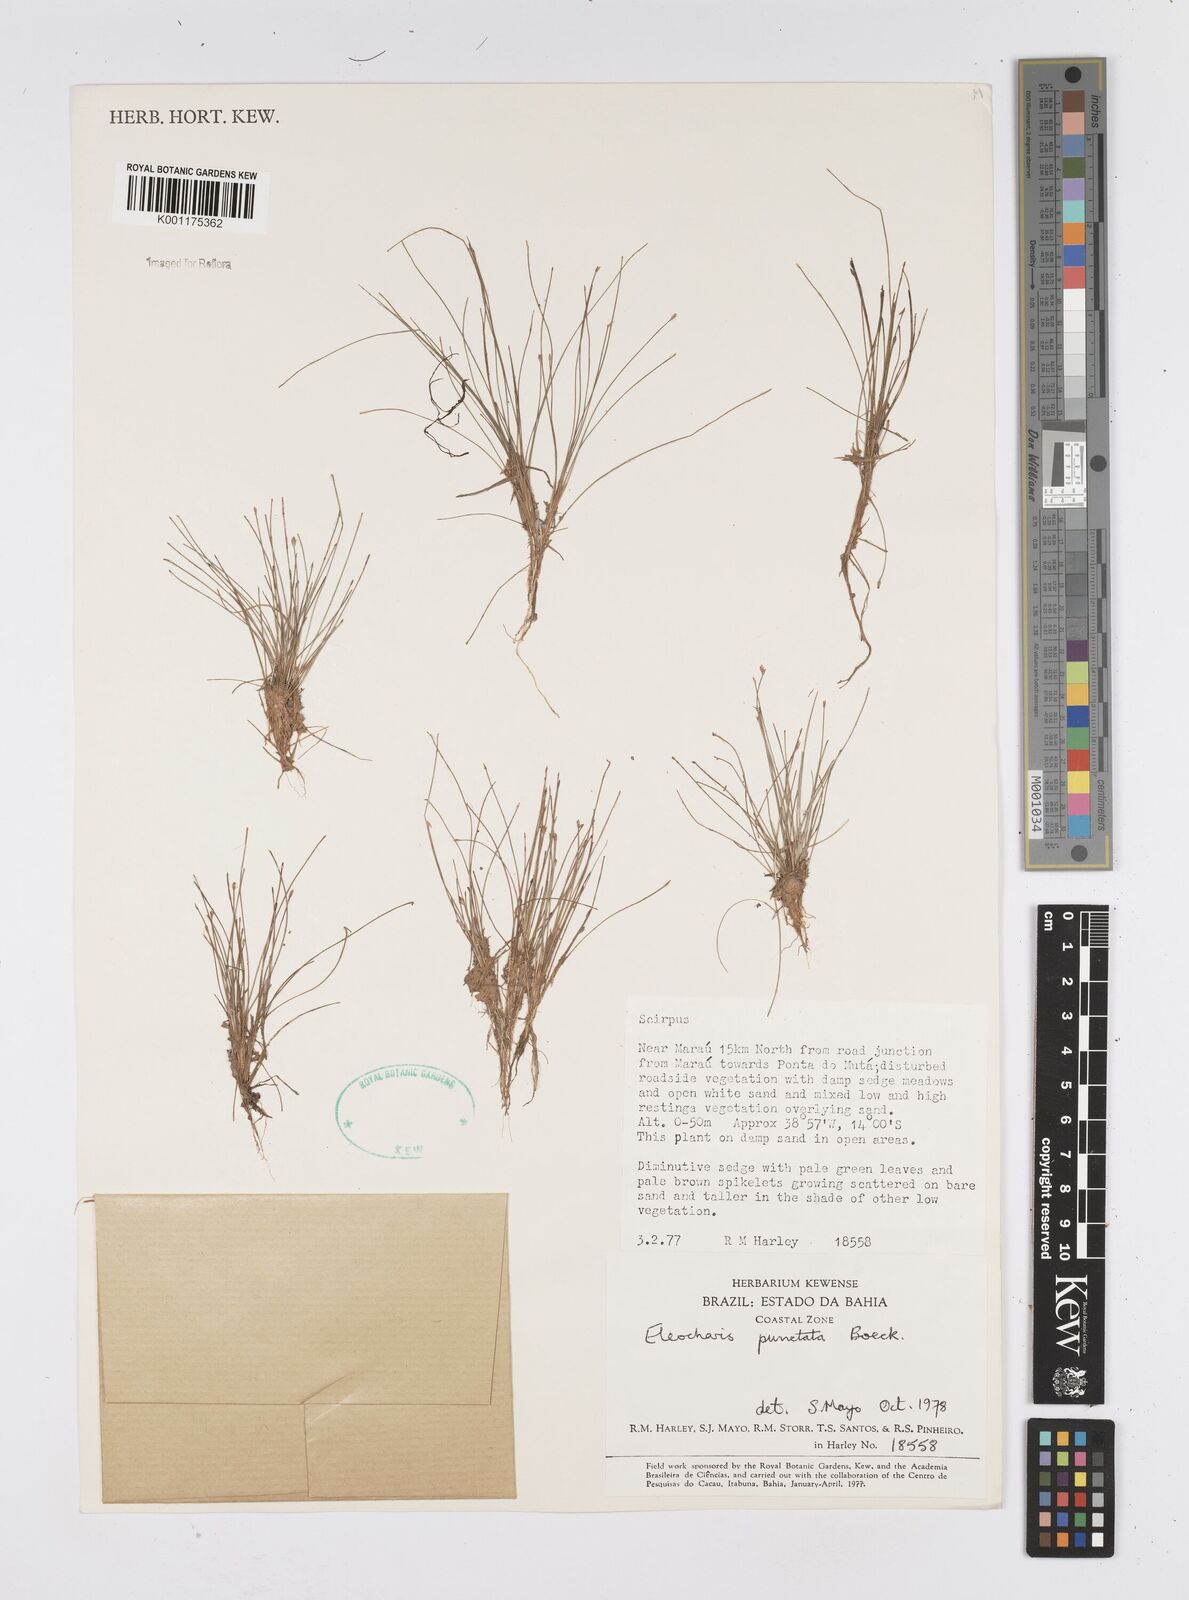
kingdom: Plantae
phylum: Tracheophyta
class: Liliopsida
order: Poales
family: Cyperaceae
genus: Eleocharis
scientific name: Eleocharis nana
